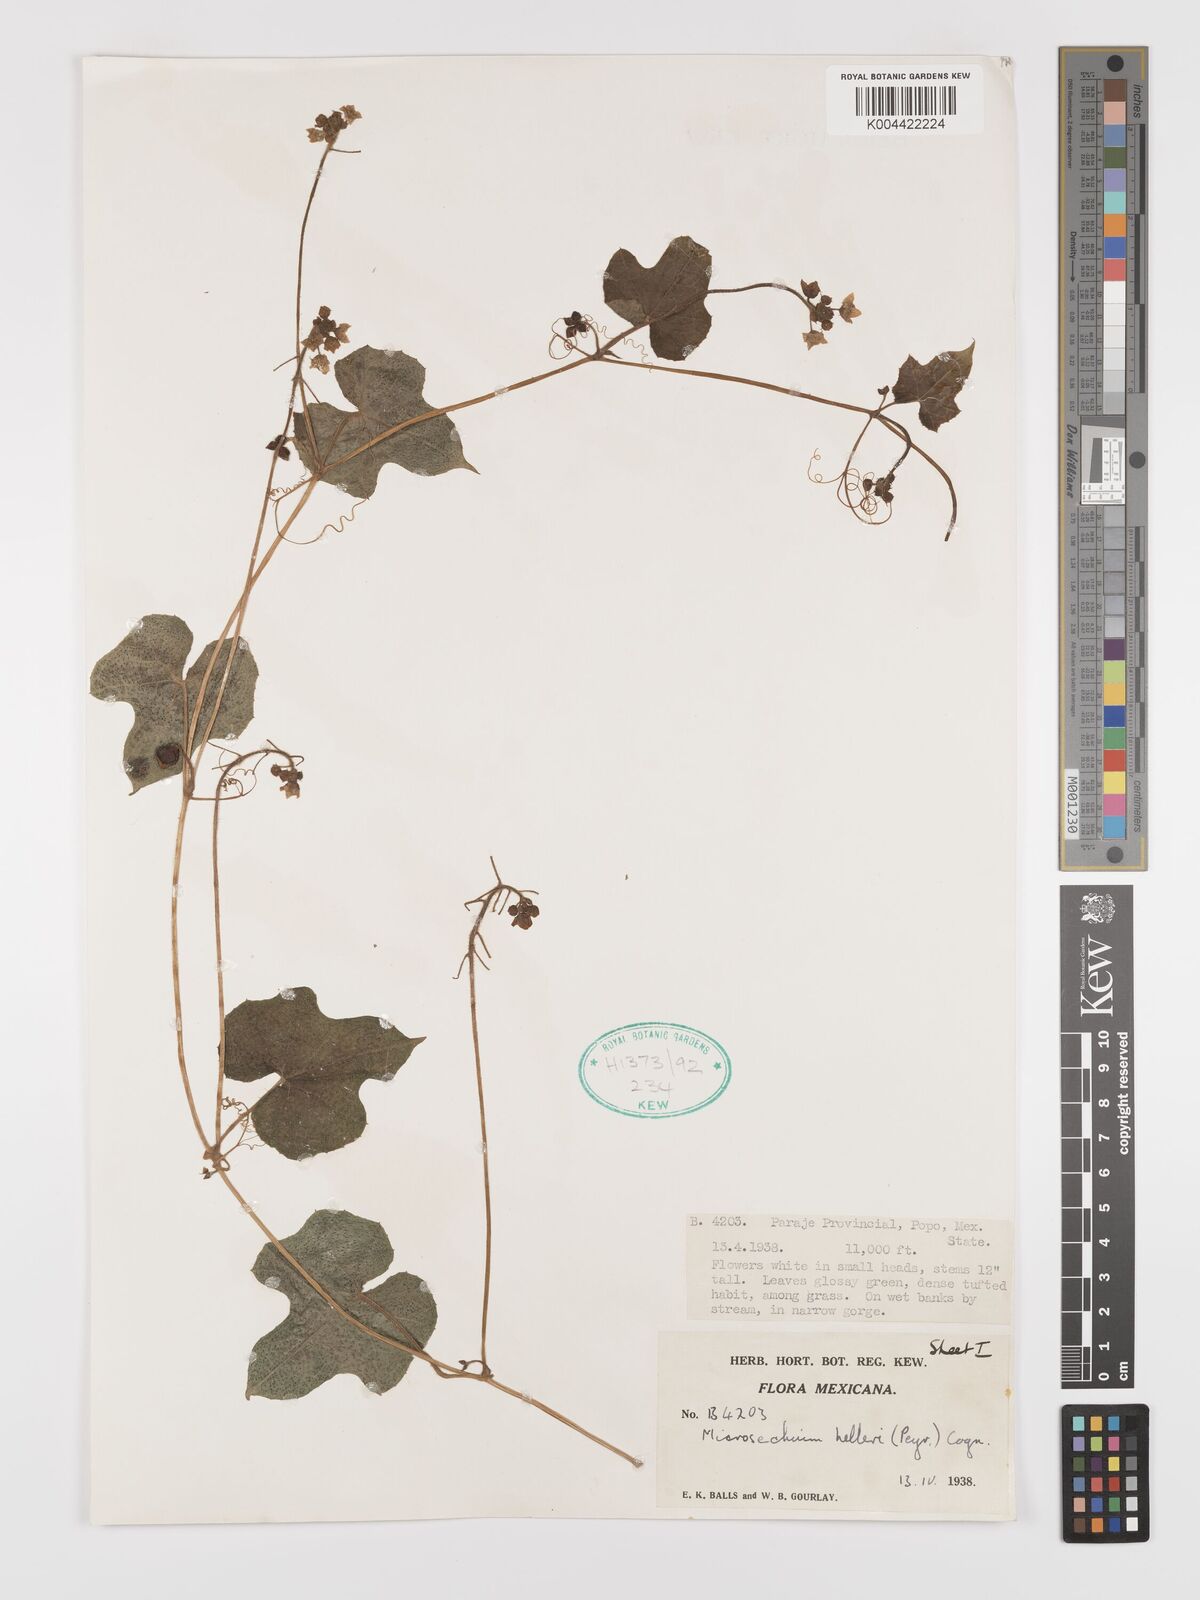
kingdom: Plantae
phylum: Tracheophyta
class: Magnoliopsida
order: Cucurbitales
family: Cucurbitaceae
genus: Microsechium
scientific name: Microsechium palmatum
